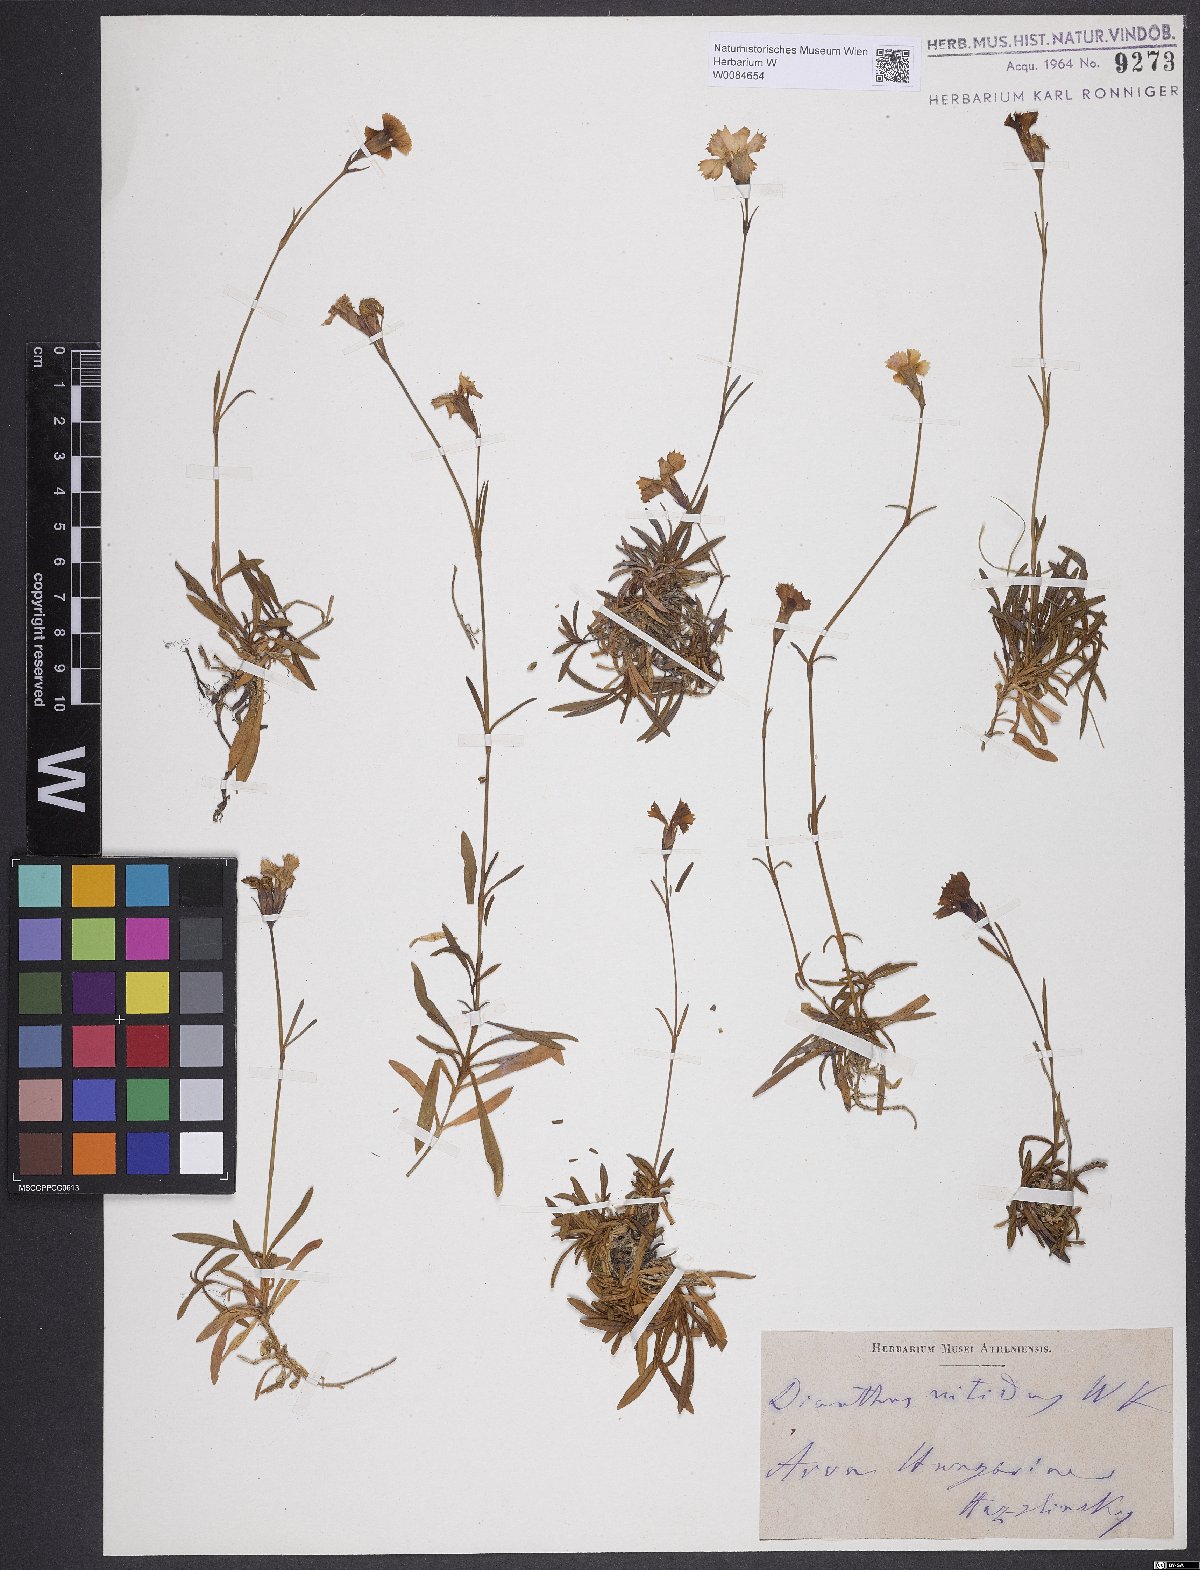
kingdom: Plantae
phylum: Tracheophyta
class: Magnoliopsida
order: Caryophyllales
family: Caryophyllaceae
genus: Dianthus
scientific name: Dianthus nitidus
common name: Carpathian glossy pink
